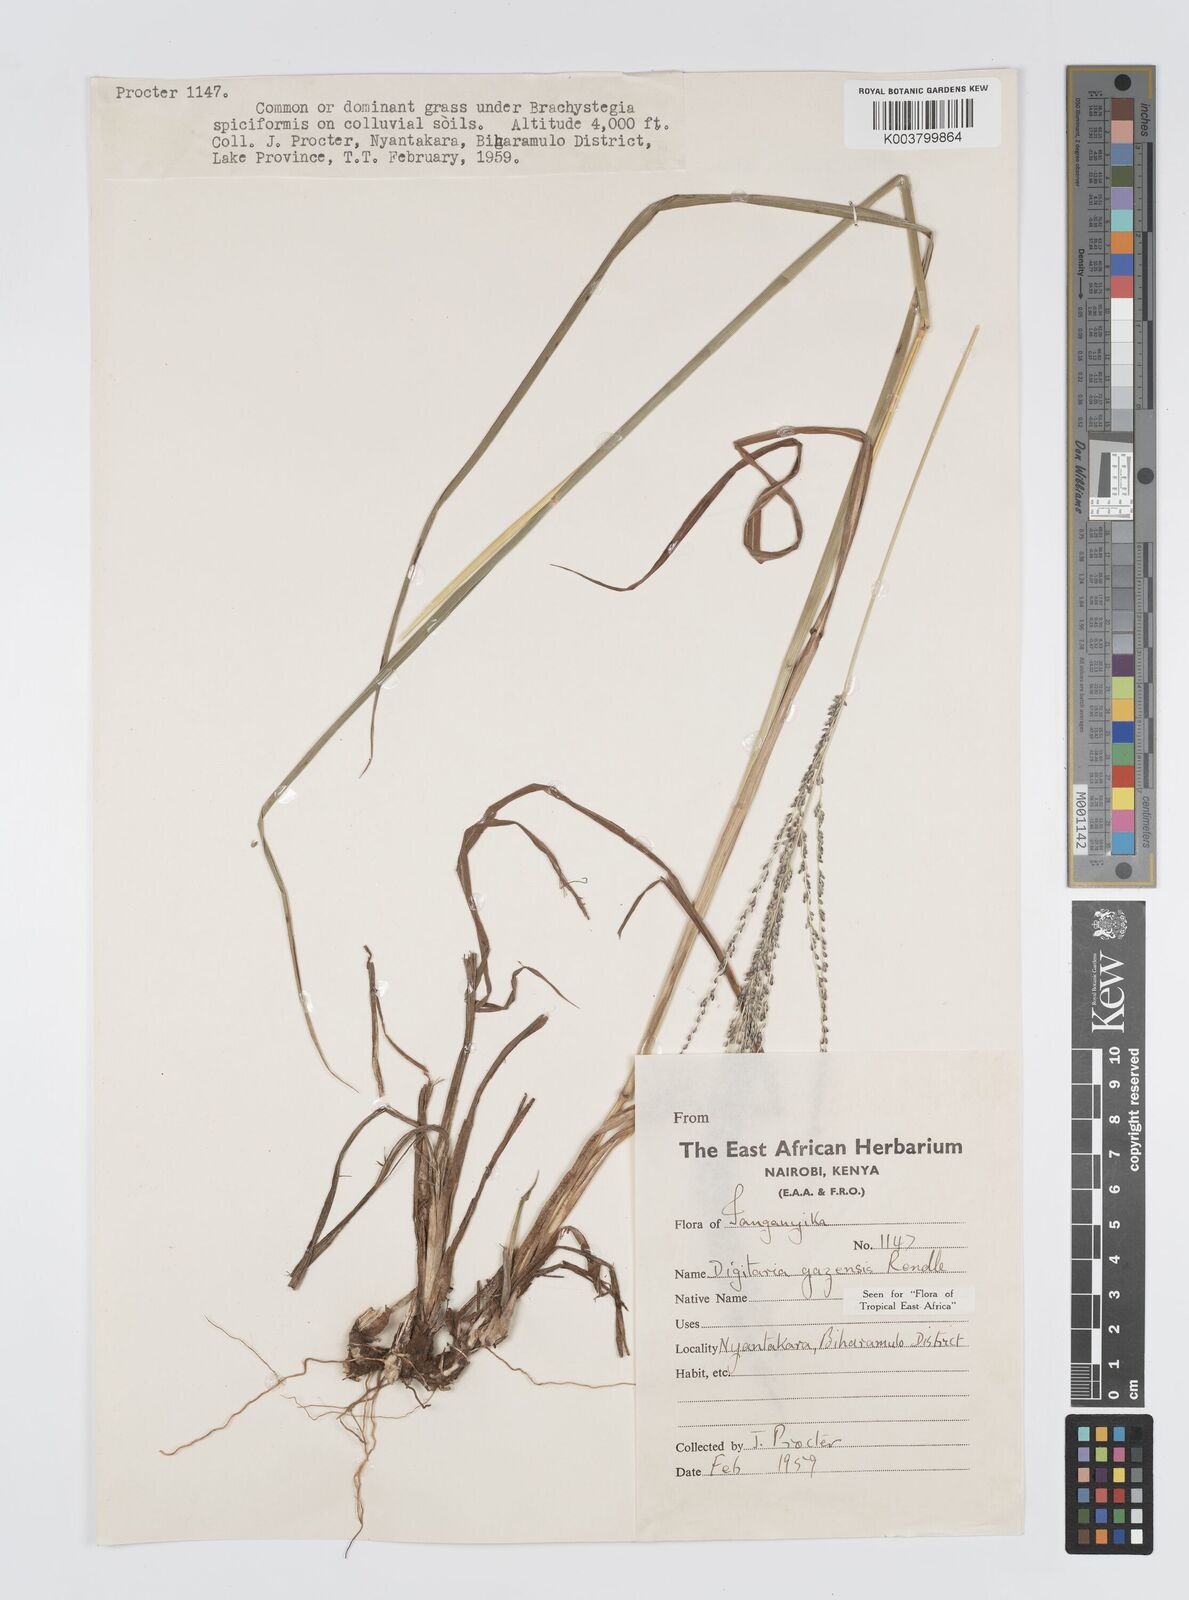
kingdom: Plantae
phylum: Tracheophyta
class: Liliopsida
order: Poales
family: Poaceae
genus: Digitaria
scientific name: Digitaria gazensis
